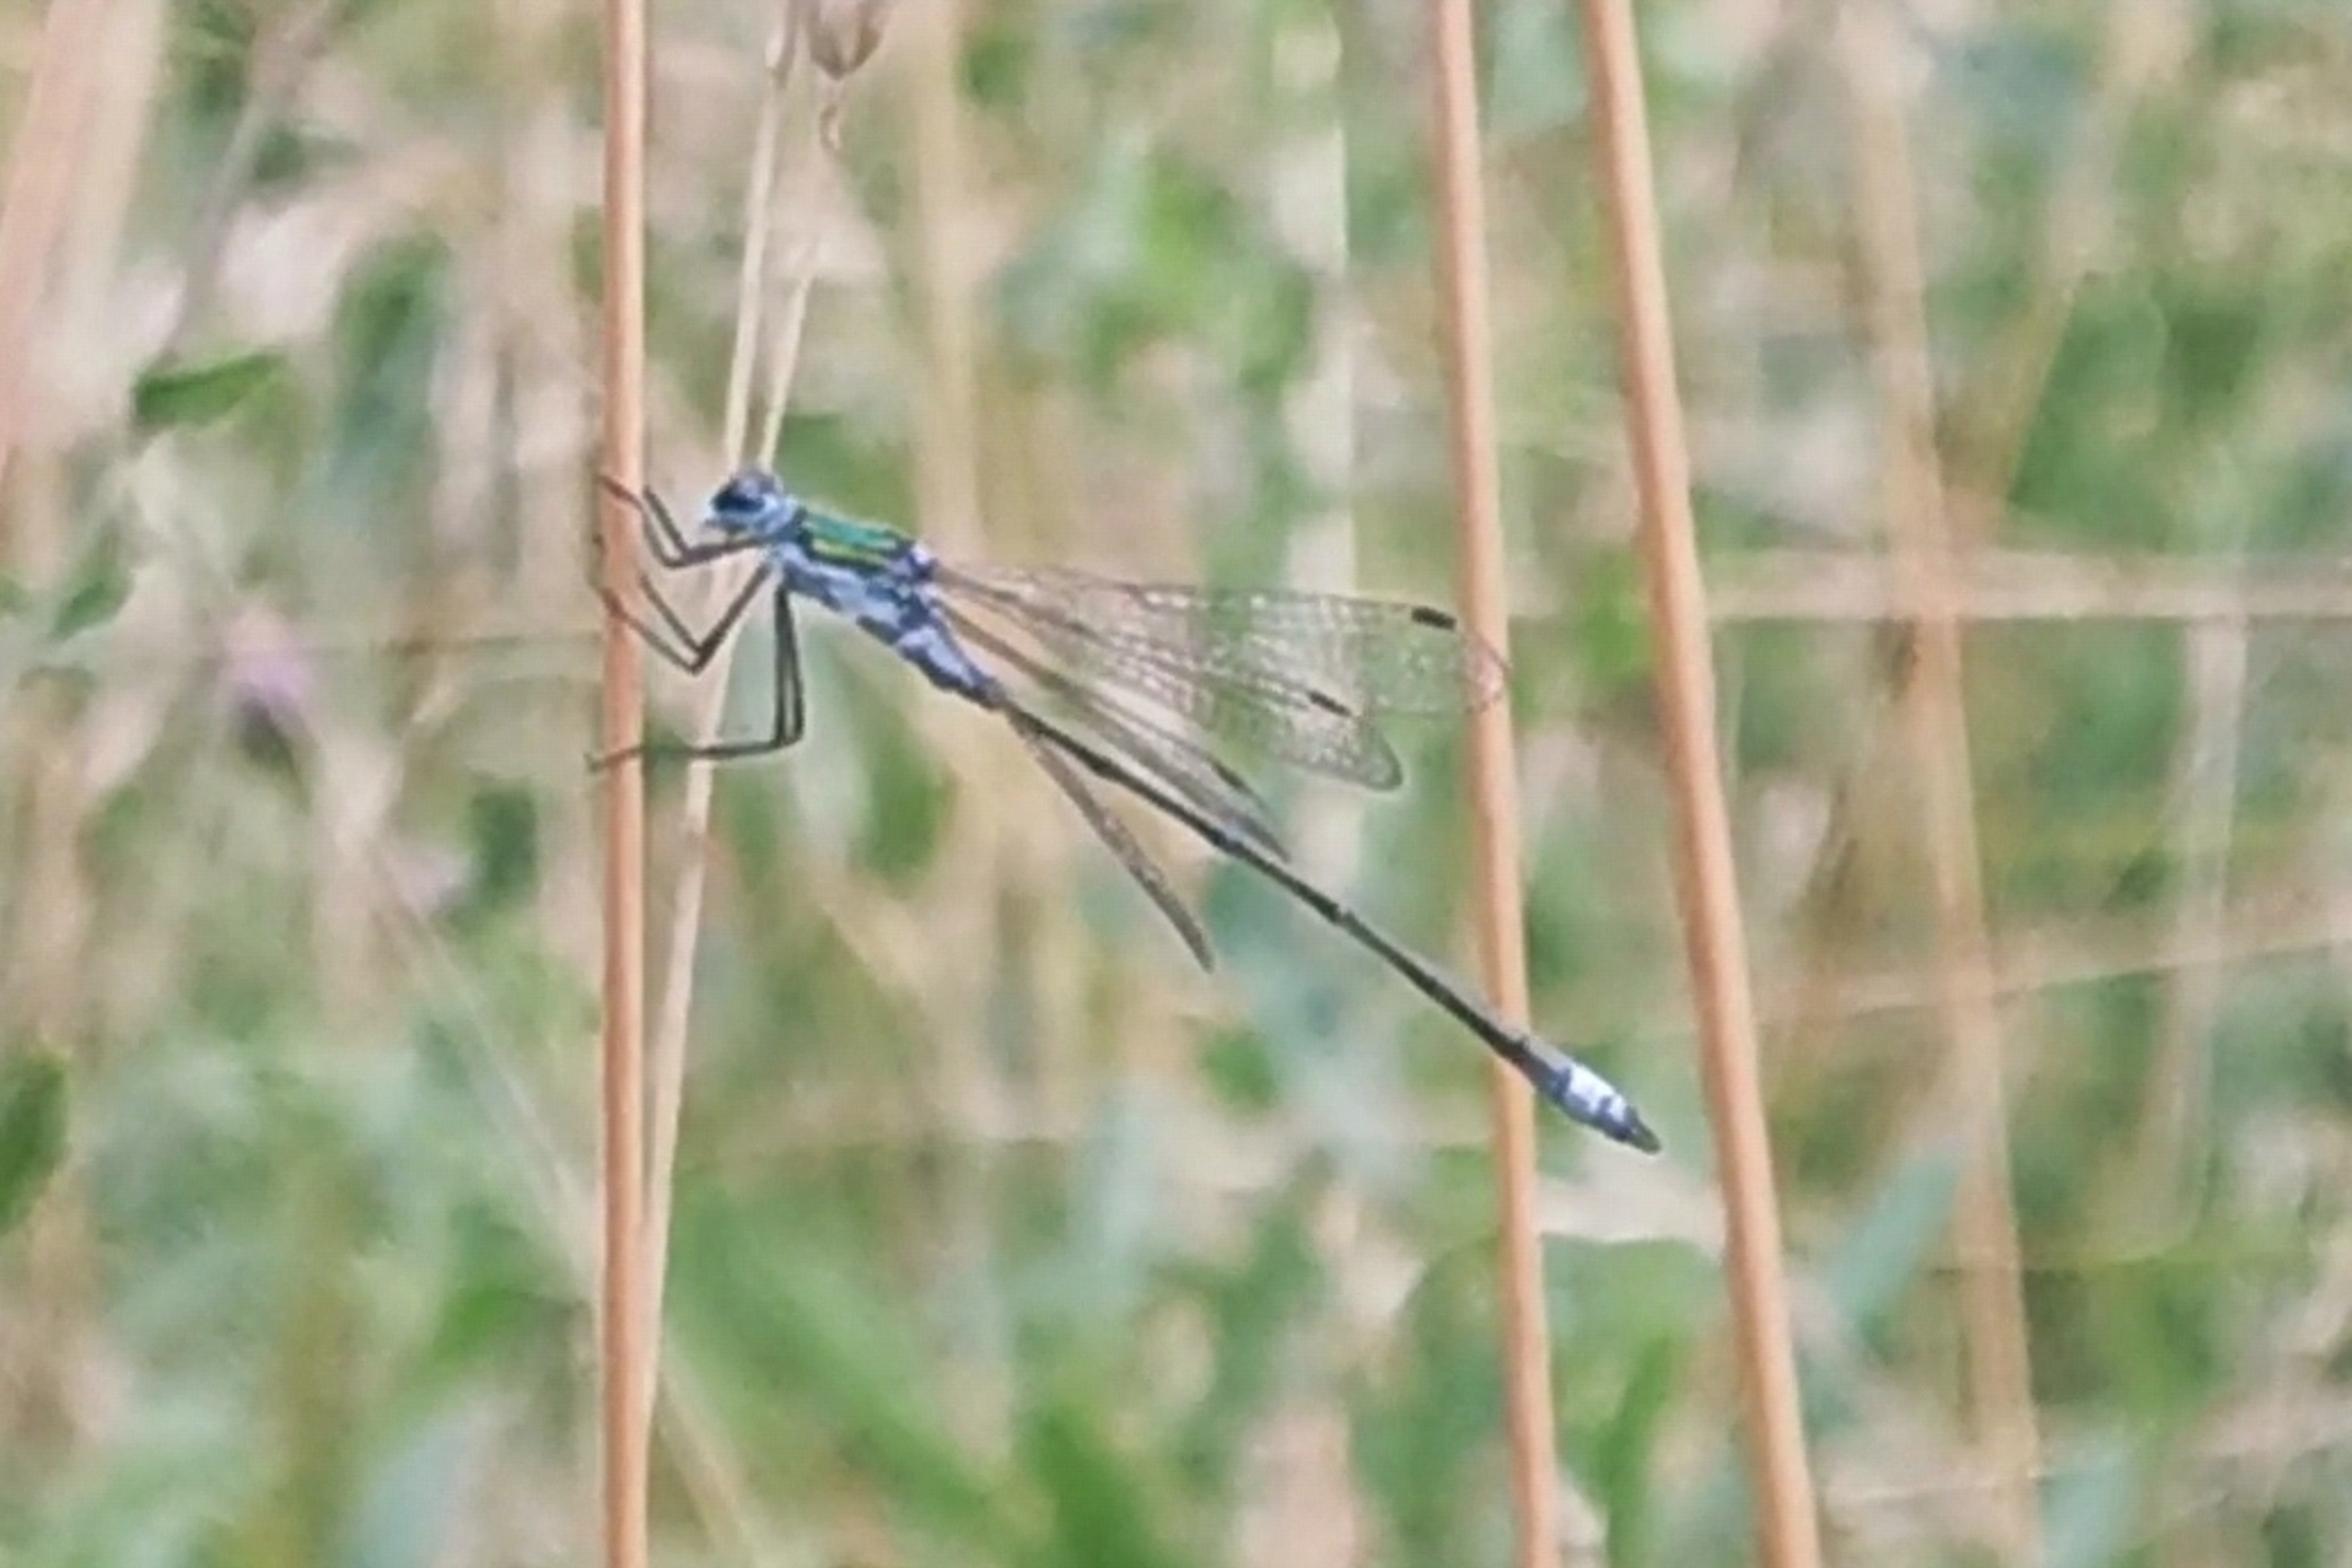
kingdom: Animalia
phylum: Arthropoda
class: Insecta
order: Odonata
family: Lestidae
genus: Lestes
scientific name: Lestes
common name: Kobbervandnymfer
